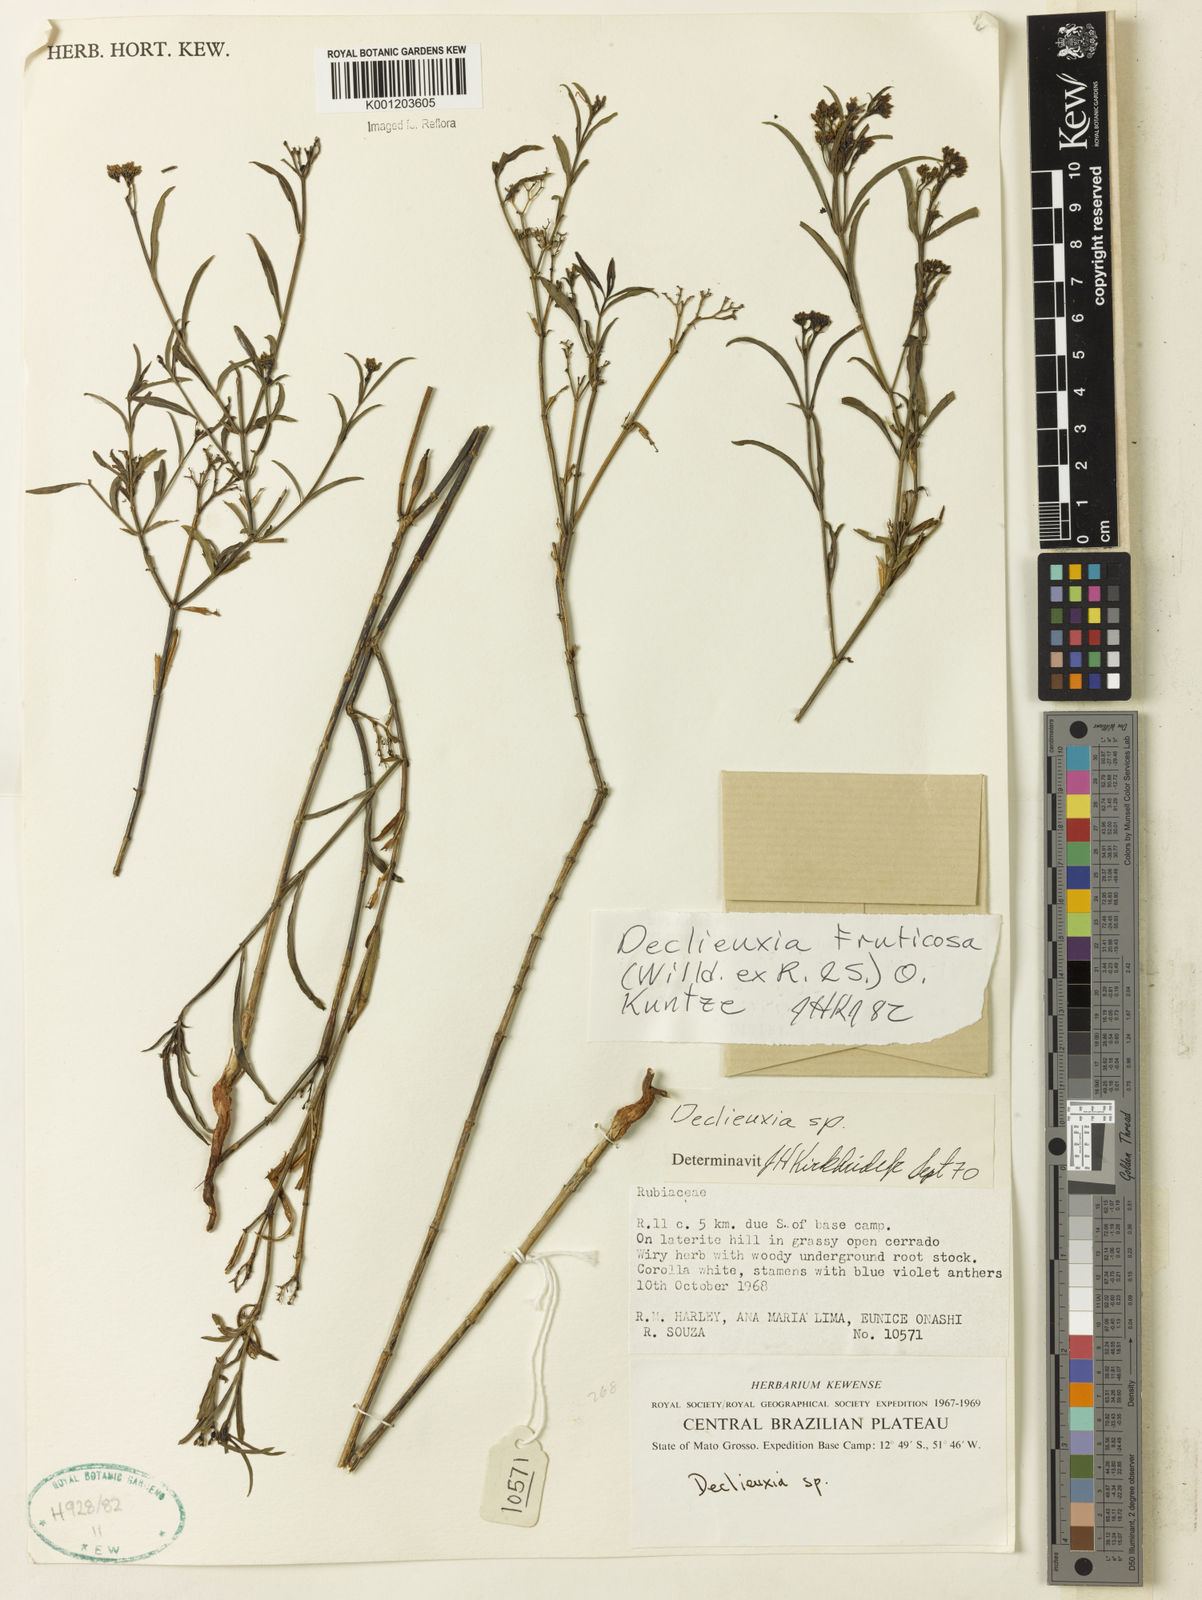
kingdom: Plantae
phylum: Tracheophyta
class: Magnoliopsida
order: Gentianales
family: Rubiaceae
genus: Declieuxia
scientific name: Declieuxia fruticosa
